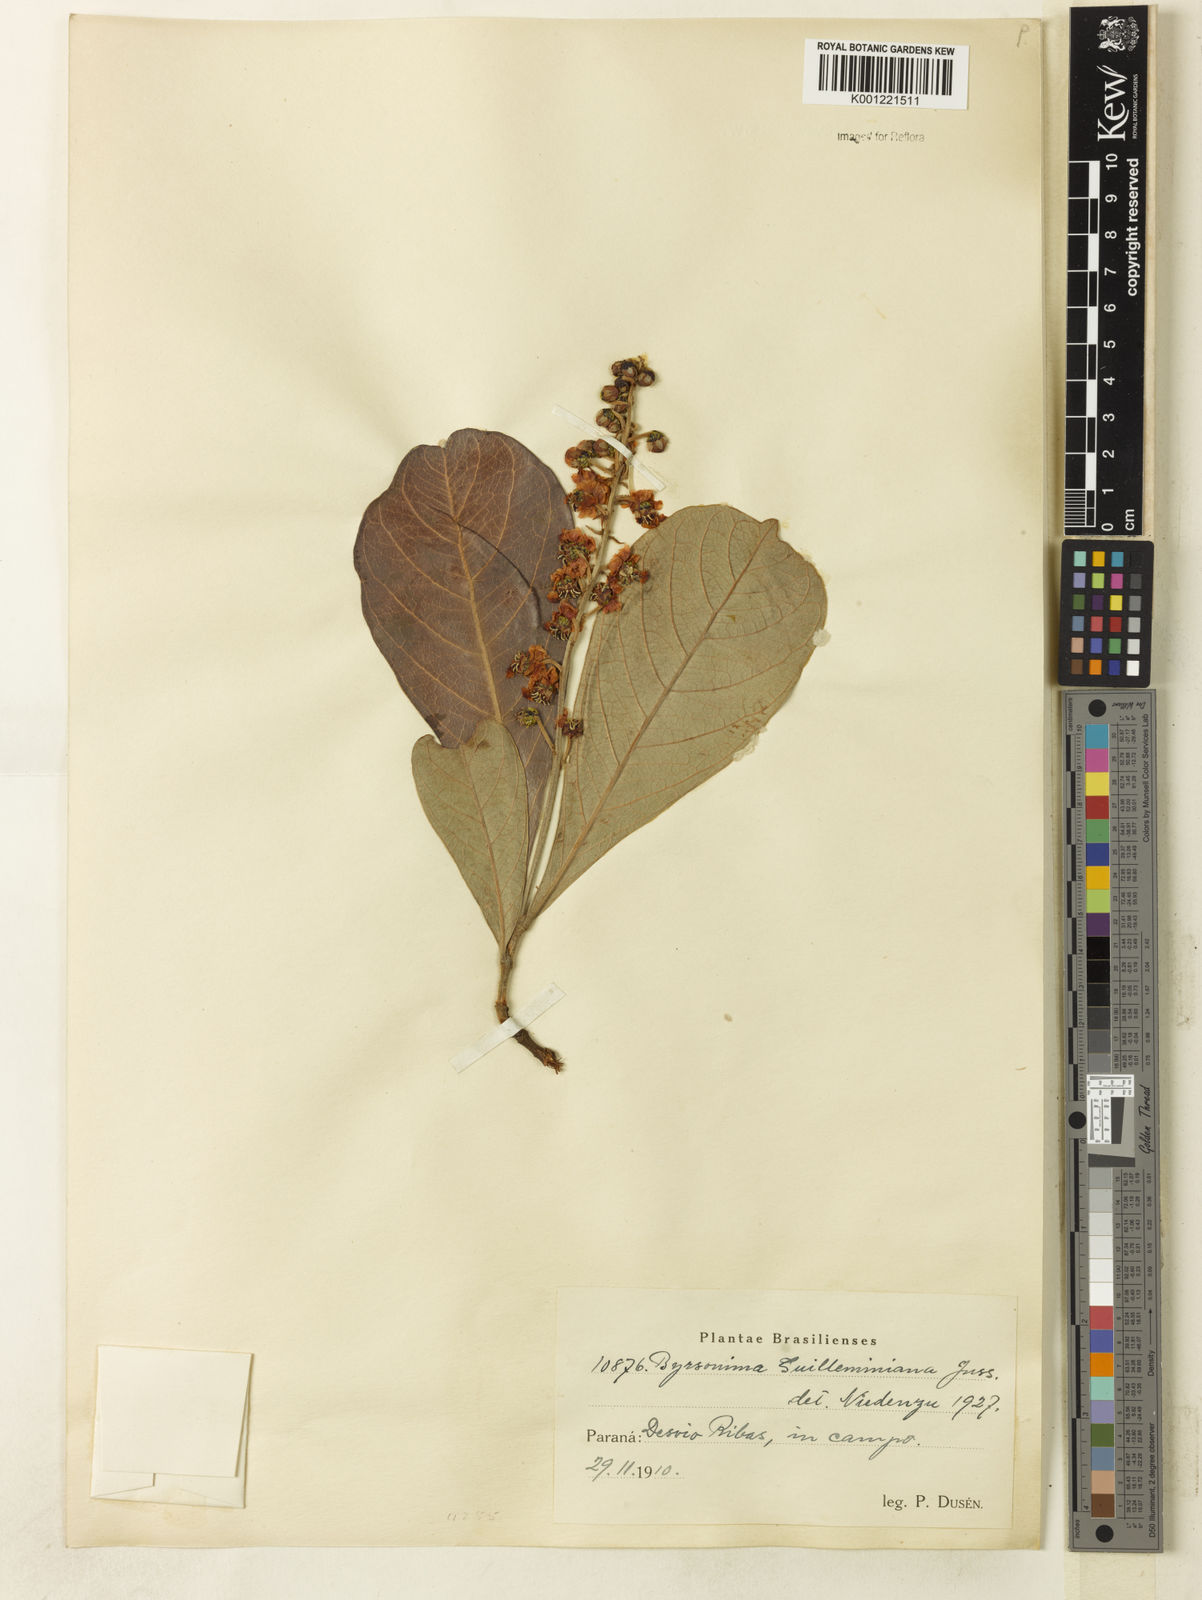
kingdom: Plantae
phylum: Tracheophyta
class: Magnoliopsida
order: Malpighiales
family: Malpighiaceae
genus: Byrsonima
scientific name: Byrsonima guilleminiana
